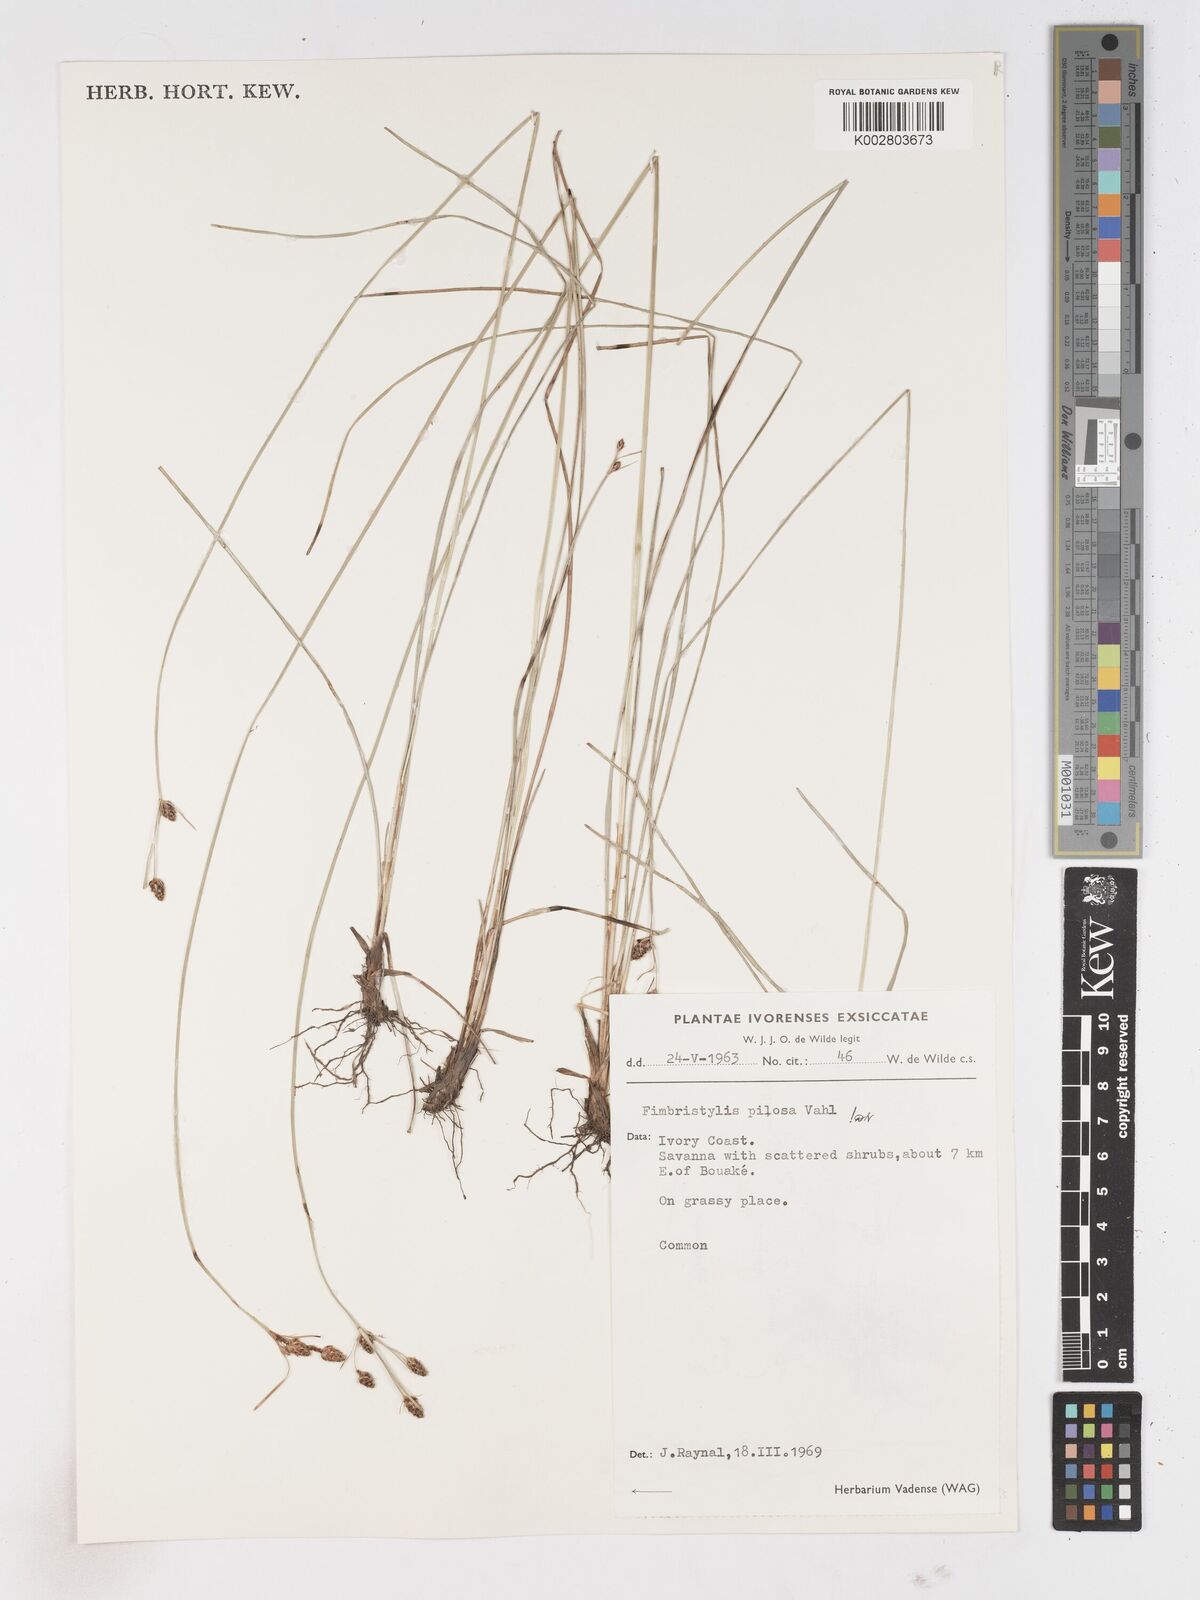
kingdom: Plantae
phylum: Tracheophyta
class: Liliopsida
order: Poales
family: Cyperaceae
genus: Fimbristylis
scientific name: Fimbristylis pilosa
